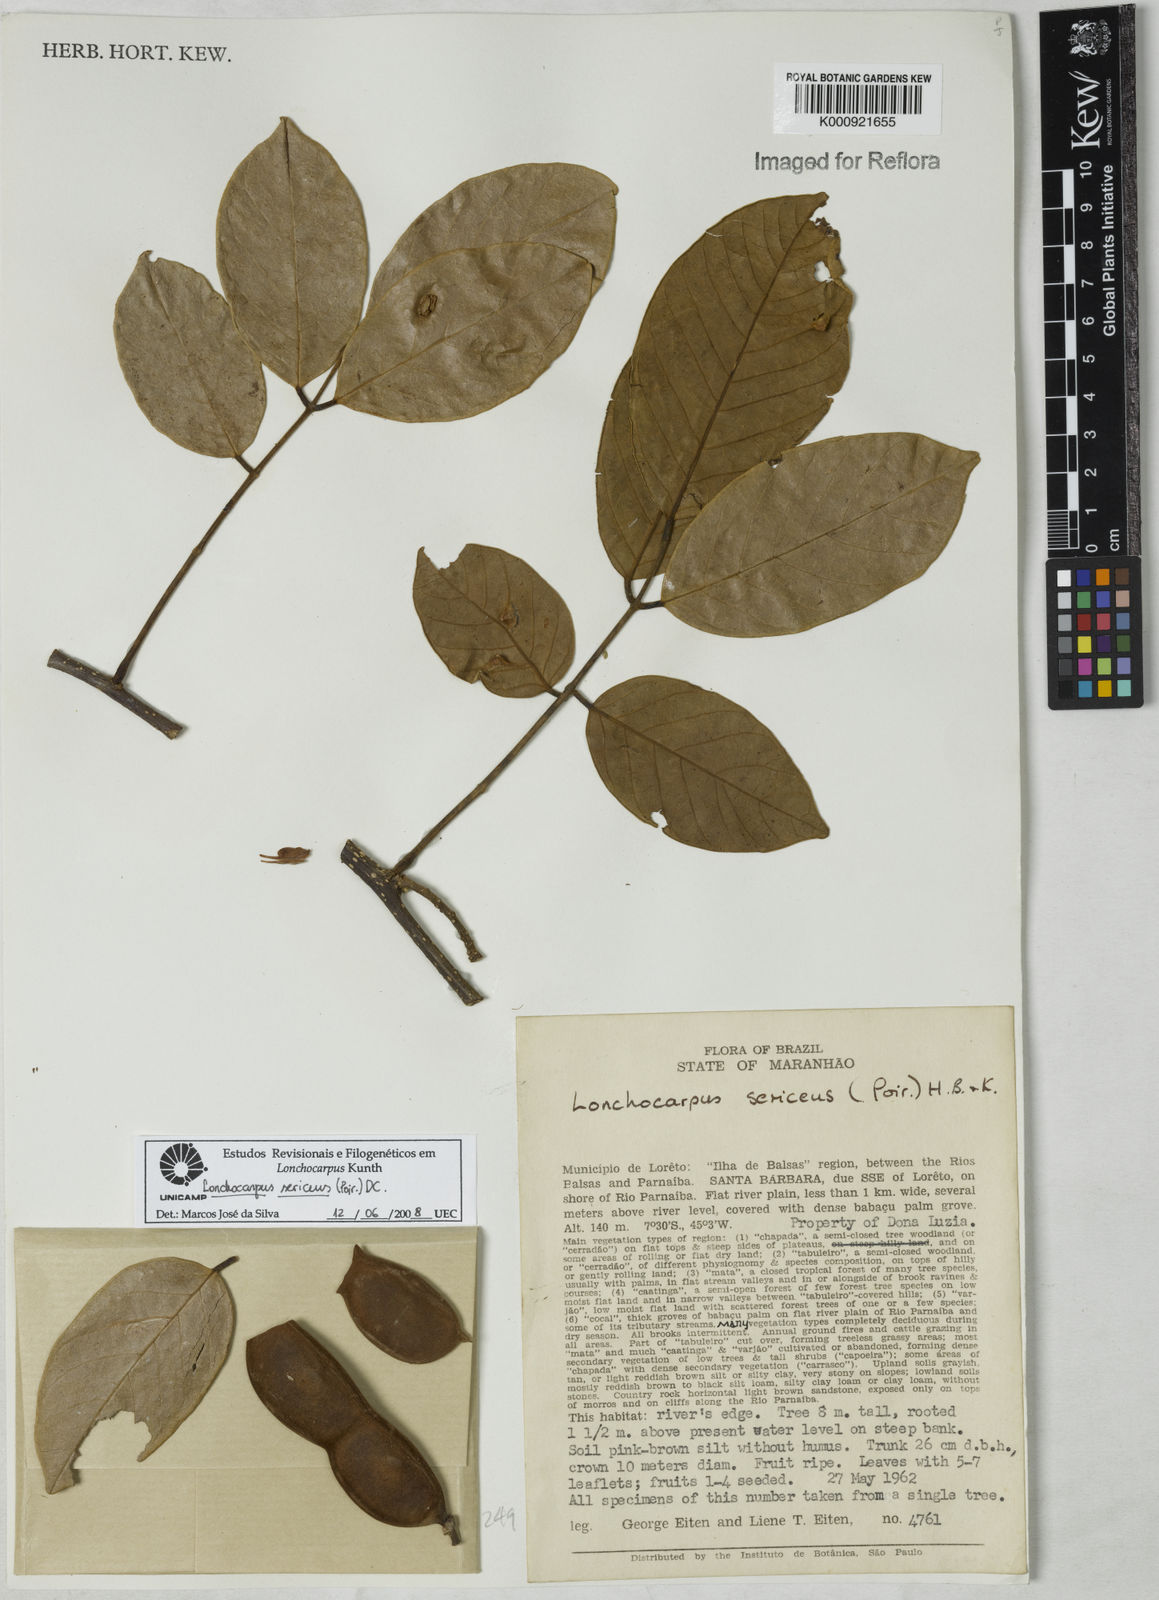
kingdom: Plantae
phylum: Tracheophyta
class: Magnoliopsida
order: Fabales
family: Fabaceae
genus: Lonchocarpus
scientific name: Lonchocarpus sericeus
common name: Savonette
